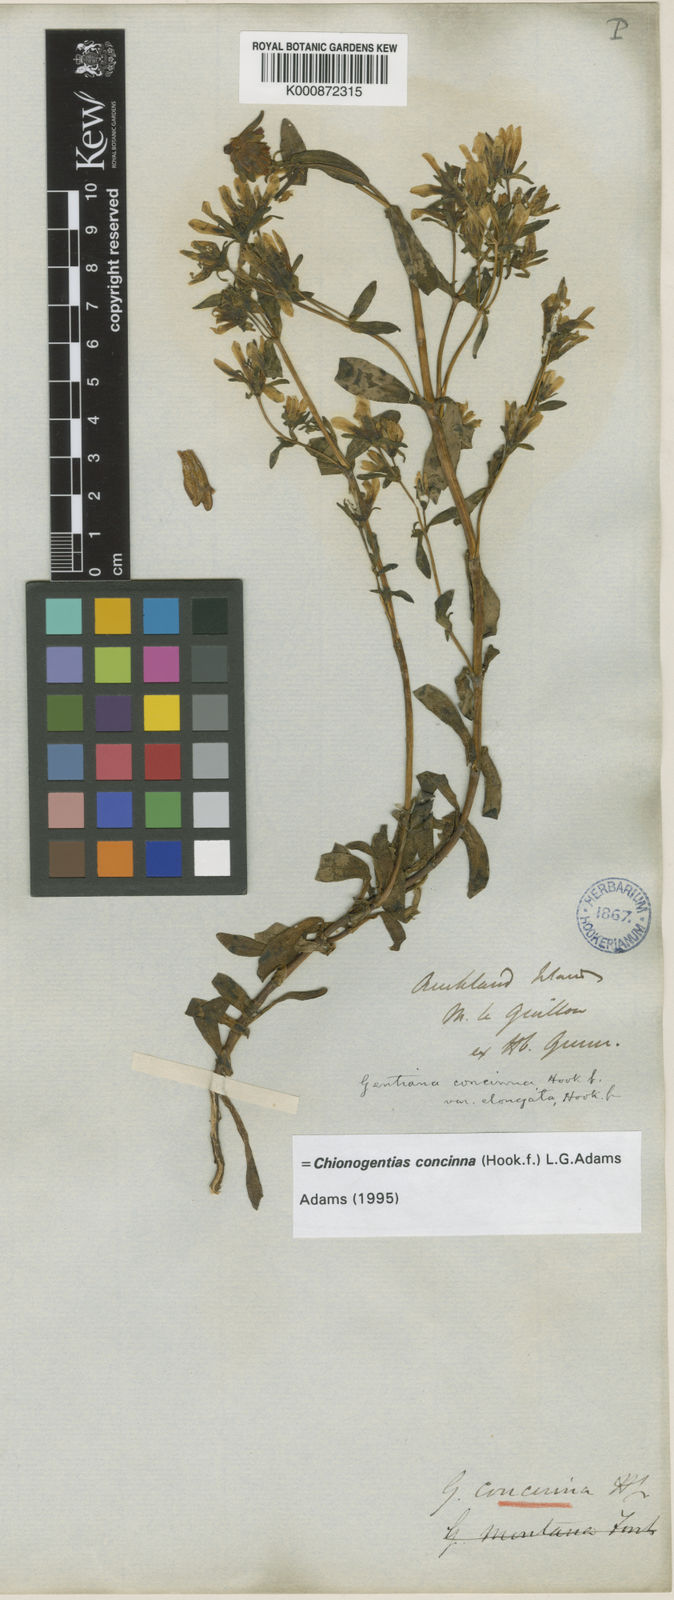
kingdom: Plantae
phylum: Tracheophyta
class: Magnoliopsida
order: Gentianales
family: Gentianaceae
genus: Gentianella
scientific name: Gentianella antarctica
